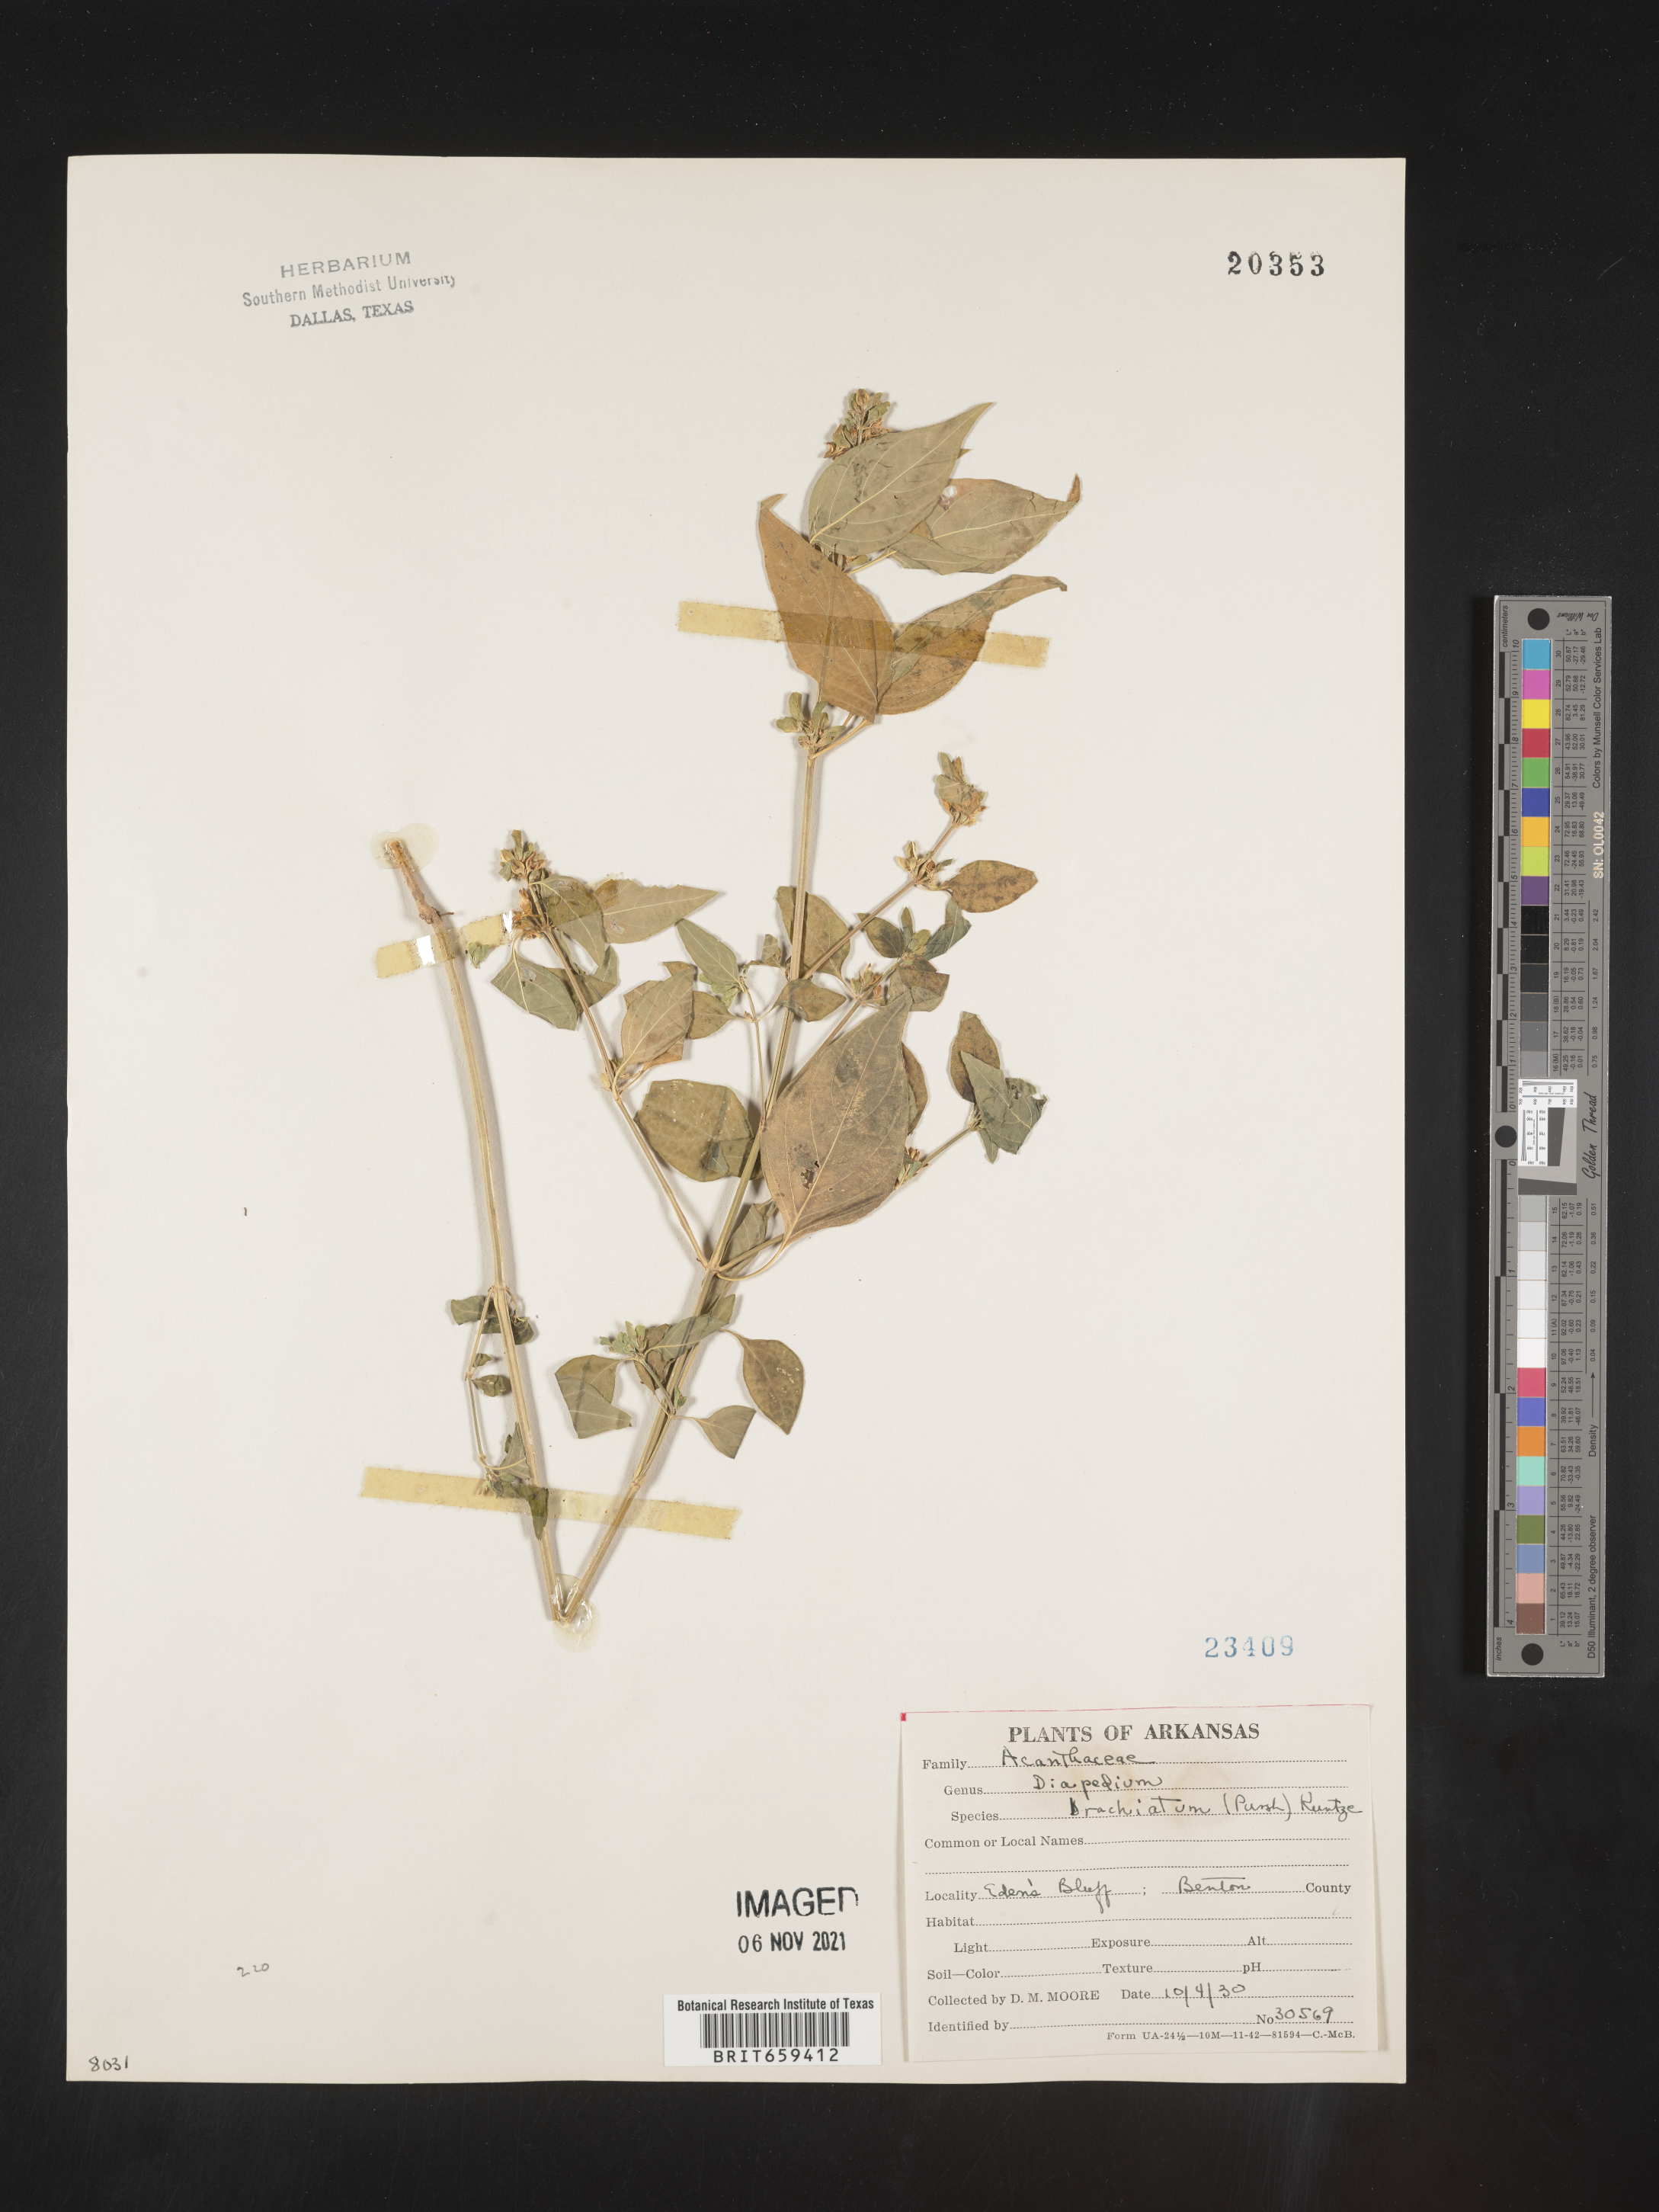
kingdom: Plantae
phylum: Tracheophyta
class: Magnoliopsida
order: Lamiales
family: Acanthaceae
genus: Dicliptera
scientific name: Dicliptera brachiata
